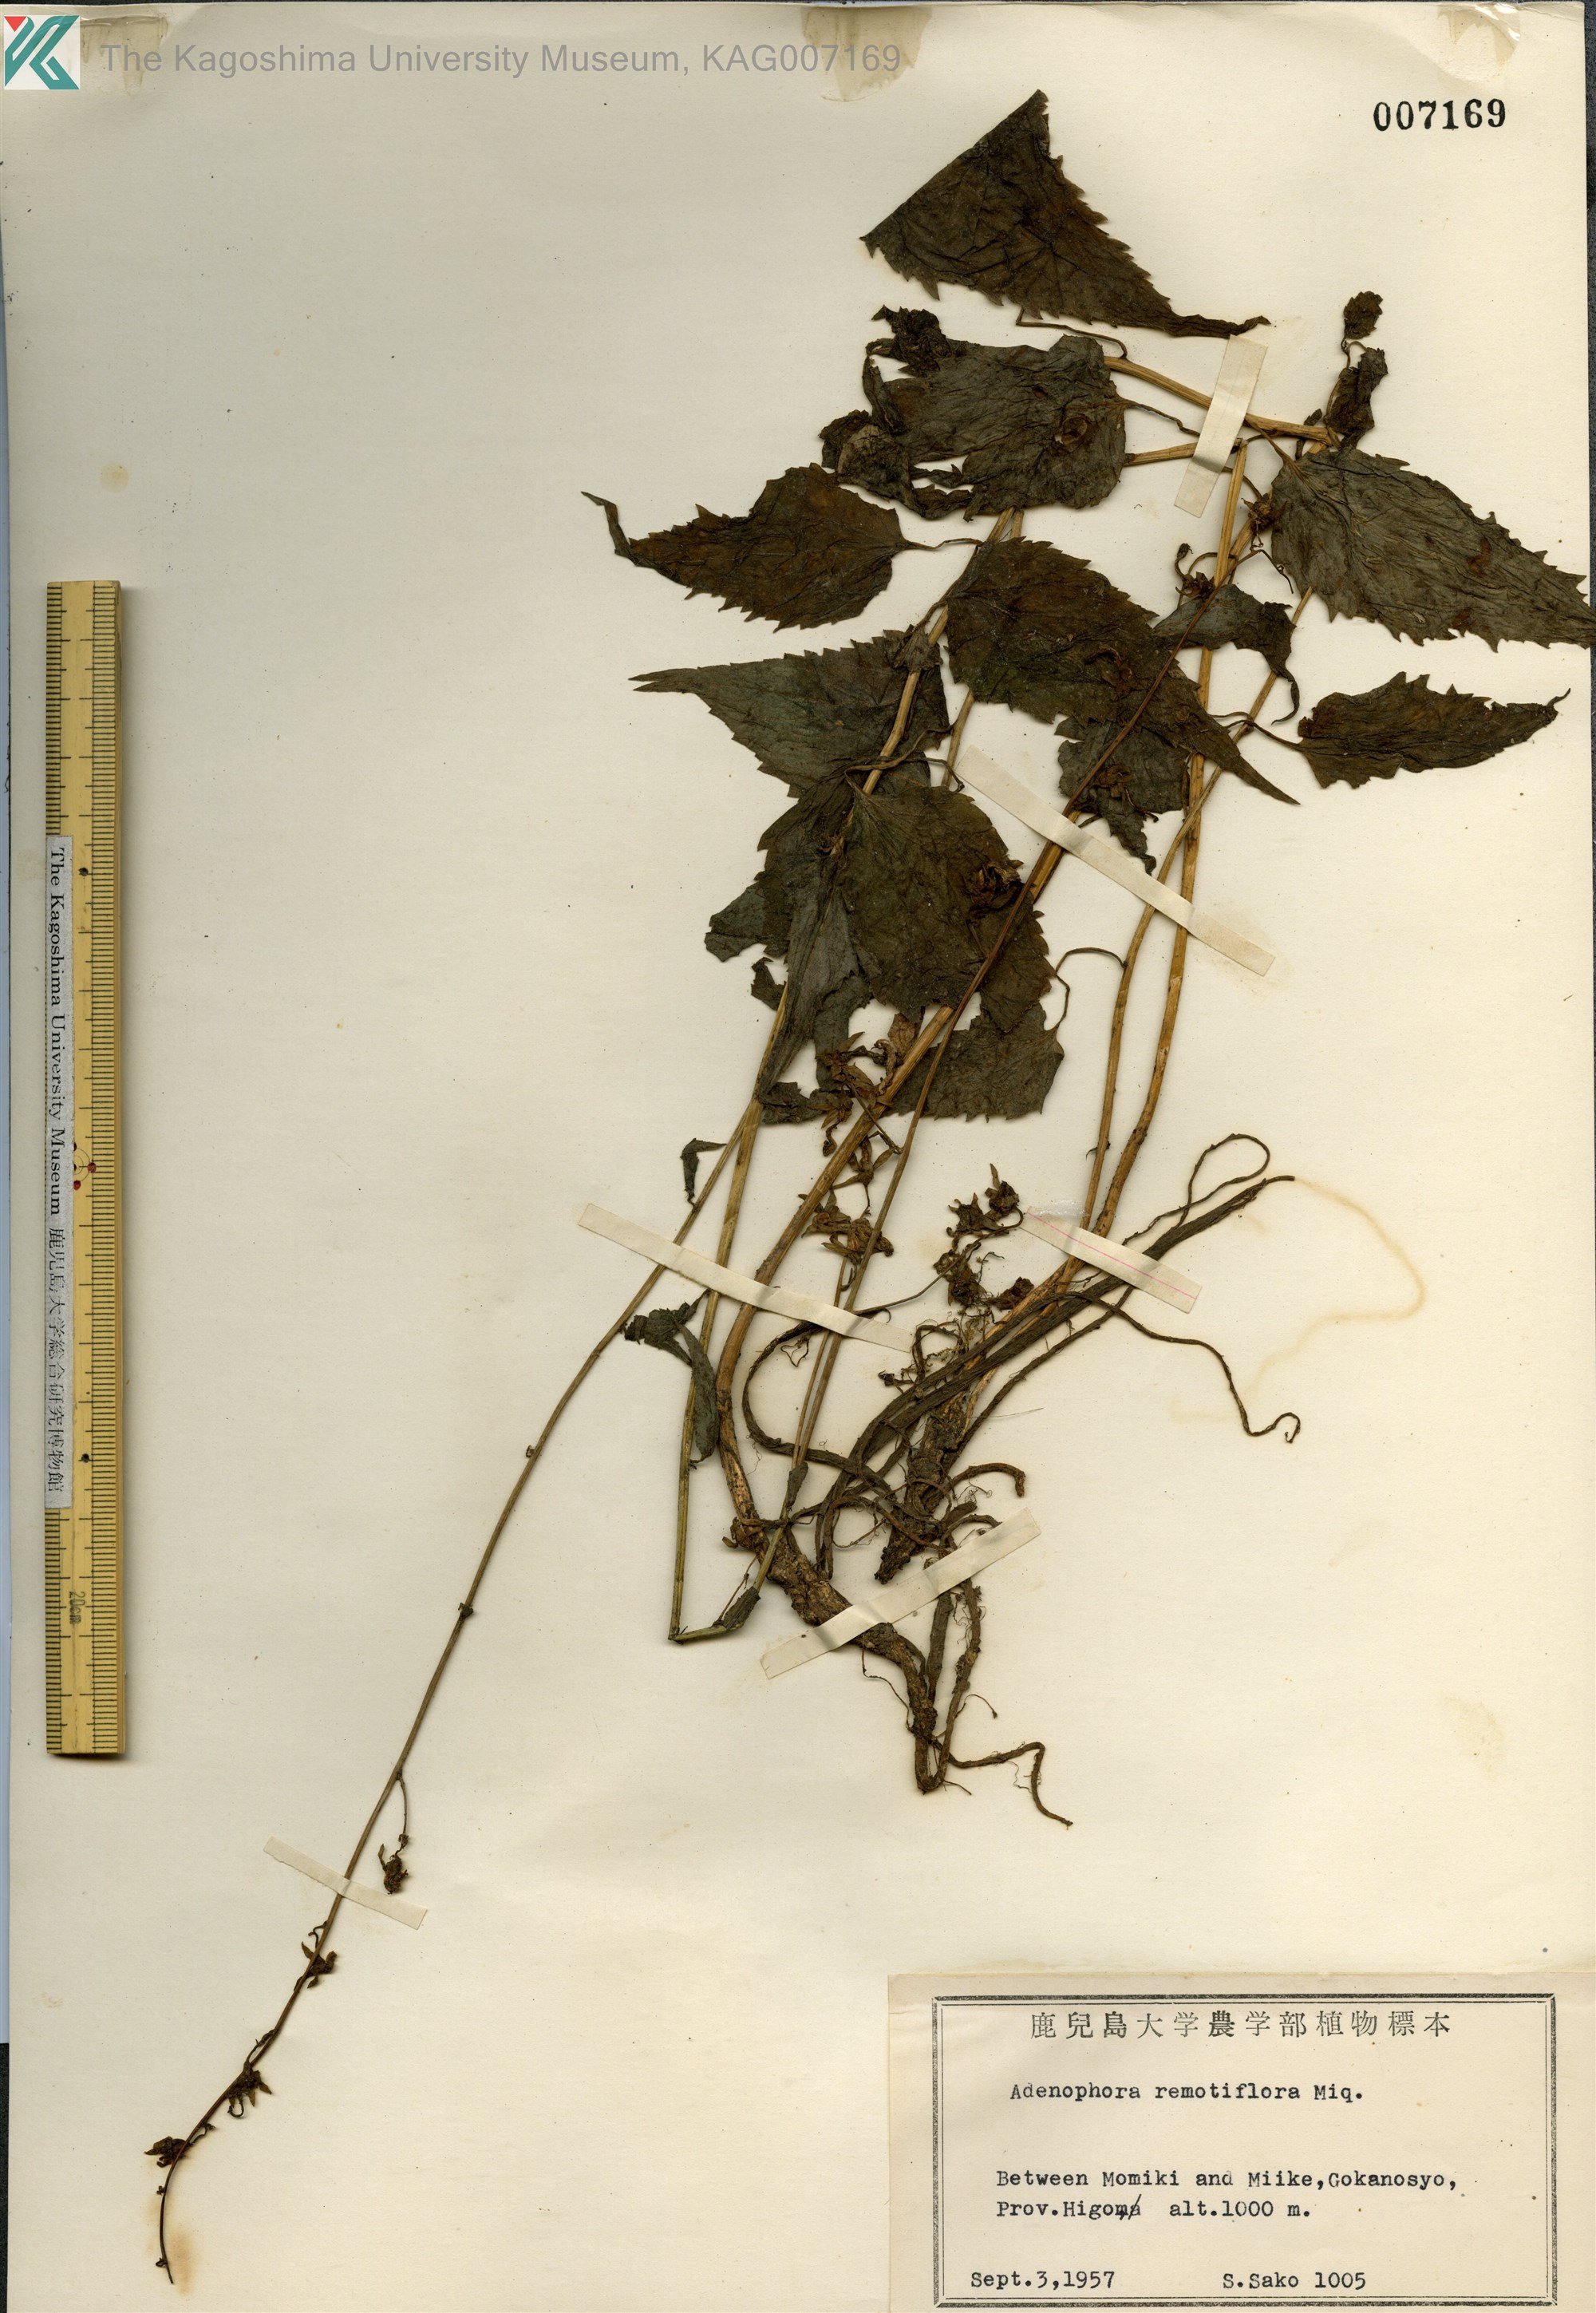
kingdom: Plantae
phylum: Tracheophyta
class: Magnoliopsida
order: Asterales
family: Campanulaceae
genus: Adenophora
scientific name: Adenophora remotiflora
